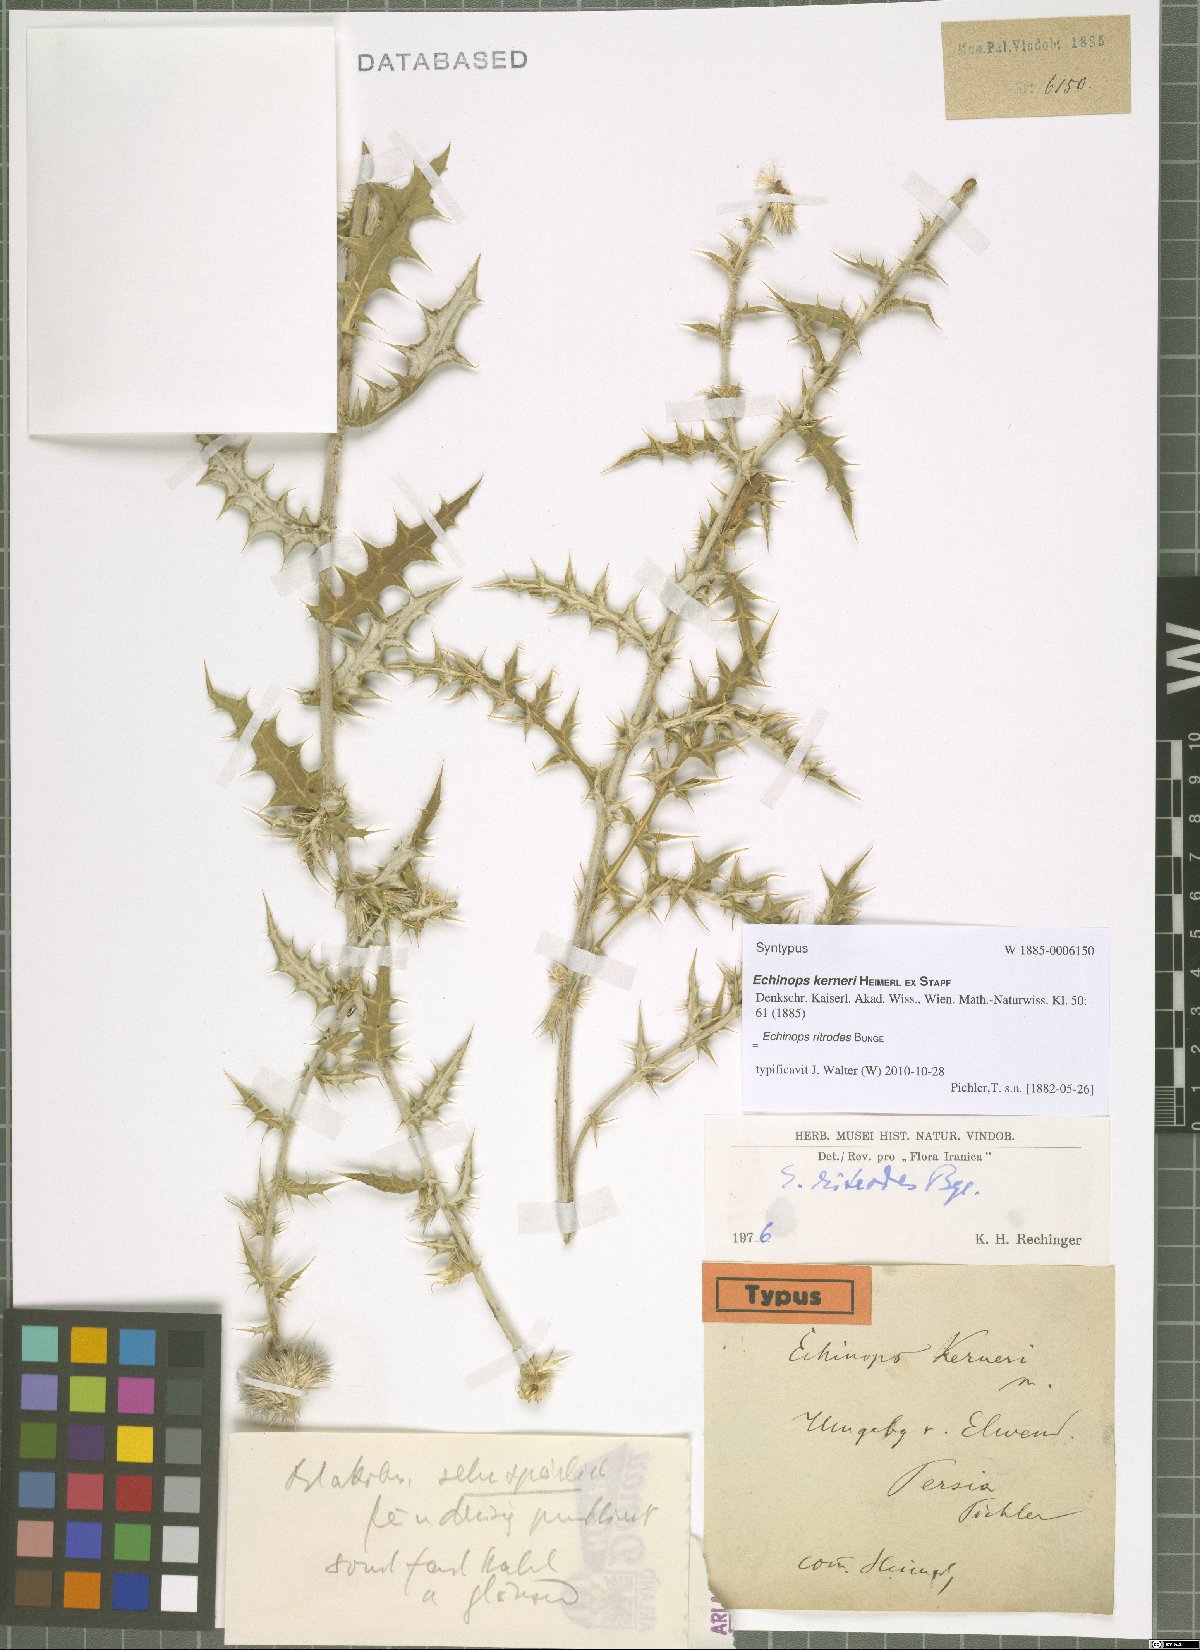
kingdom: Plantae
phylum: Tracheophyta
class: Magnoliopsida
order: Asterales
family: Asteraceae
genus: Echinops
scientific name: Echinops ritrodes
